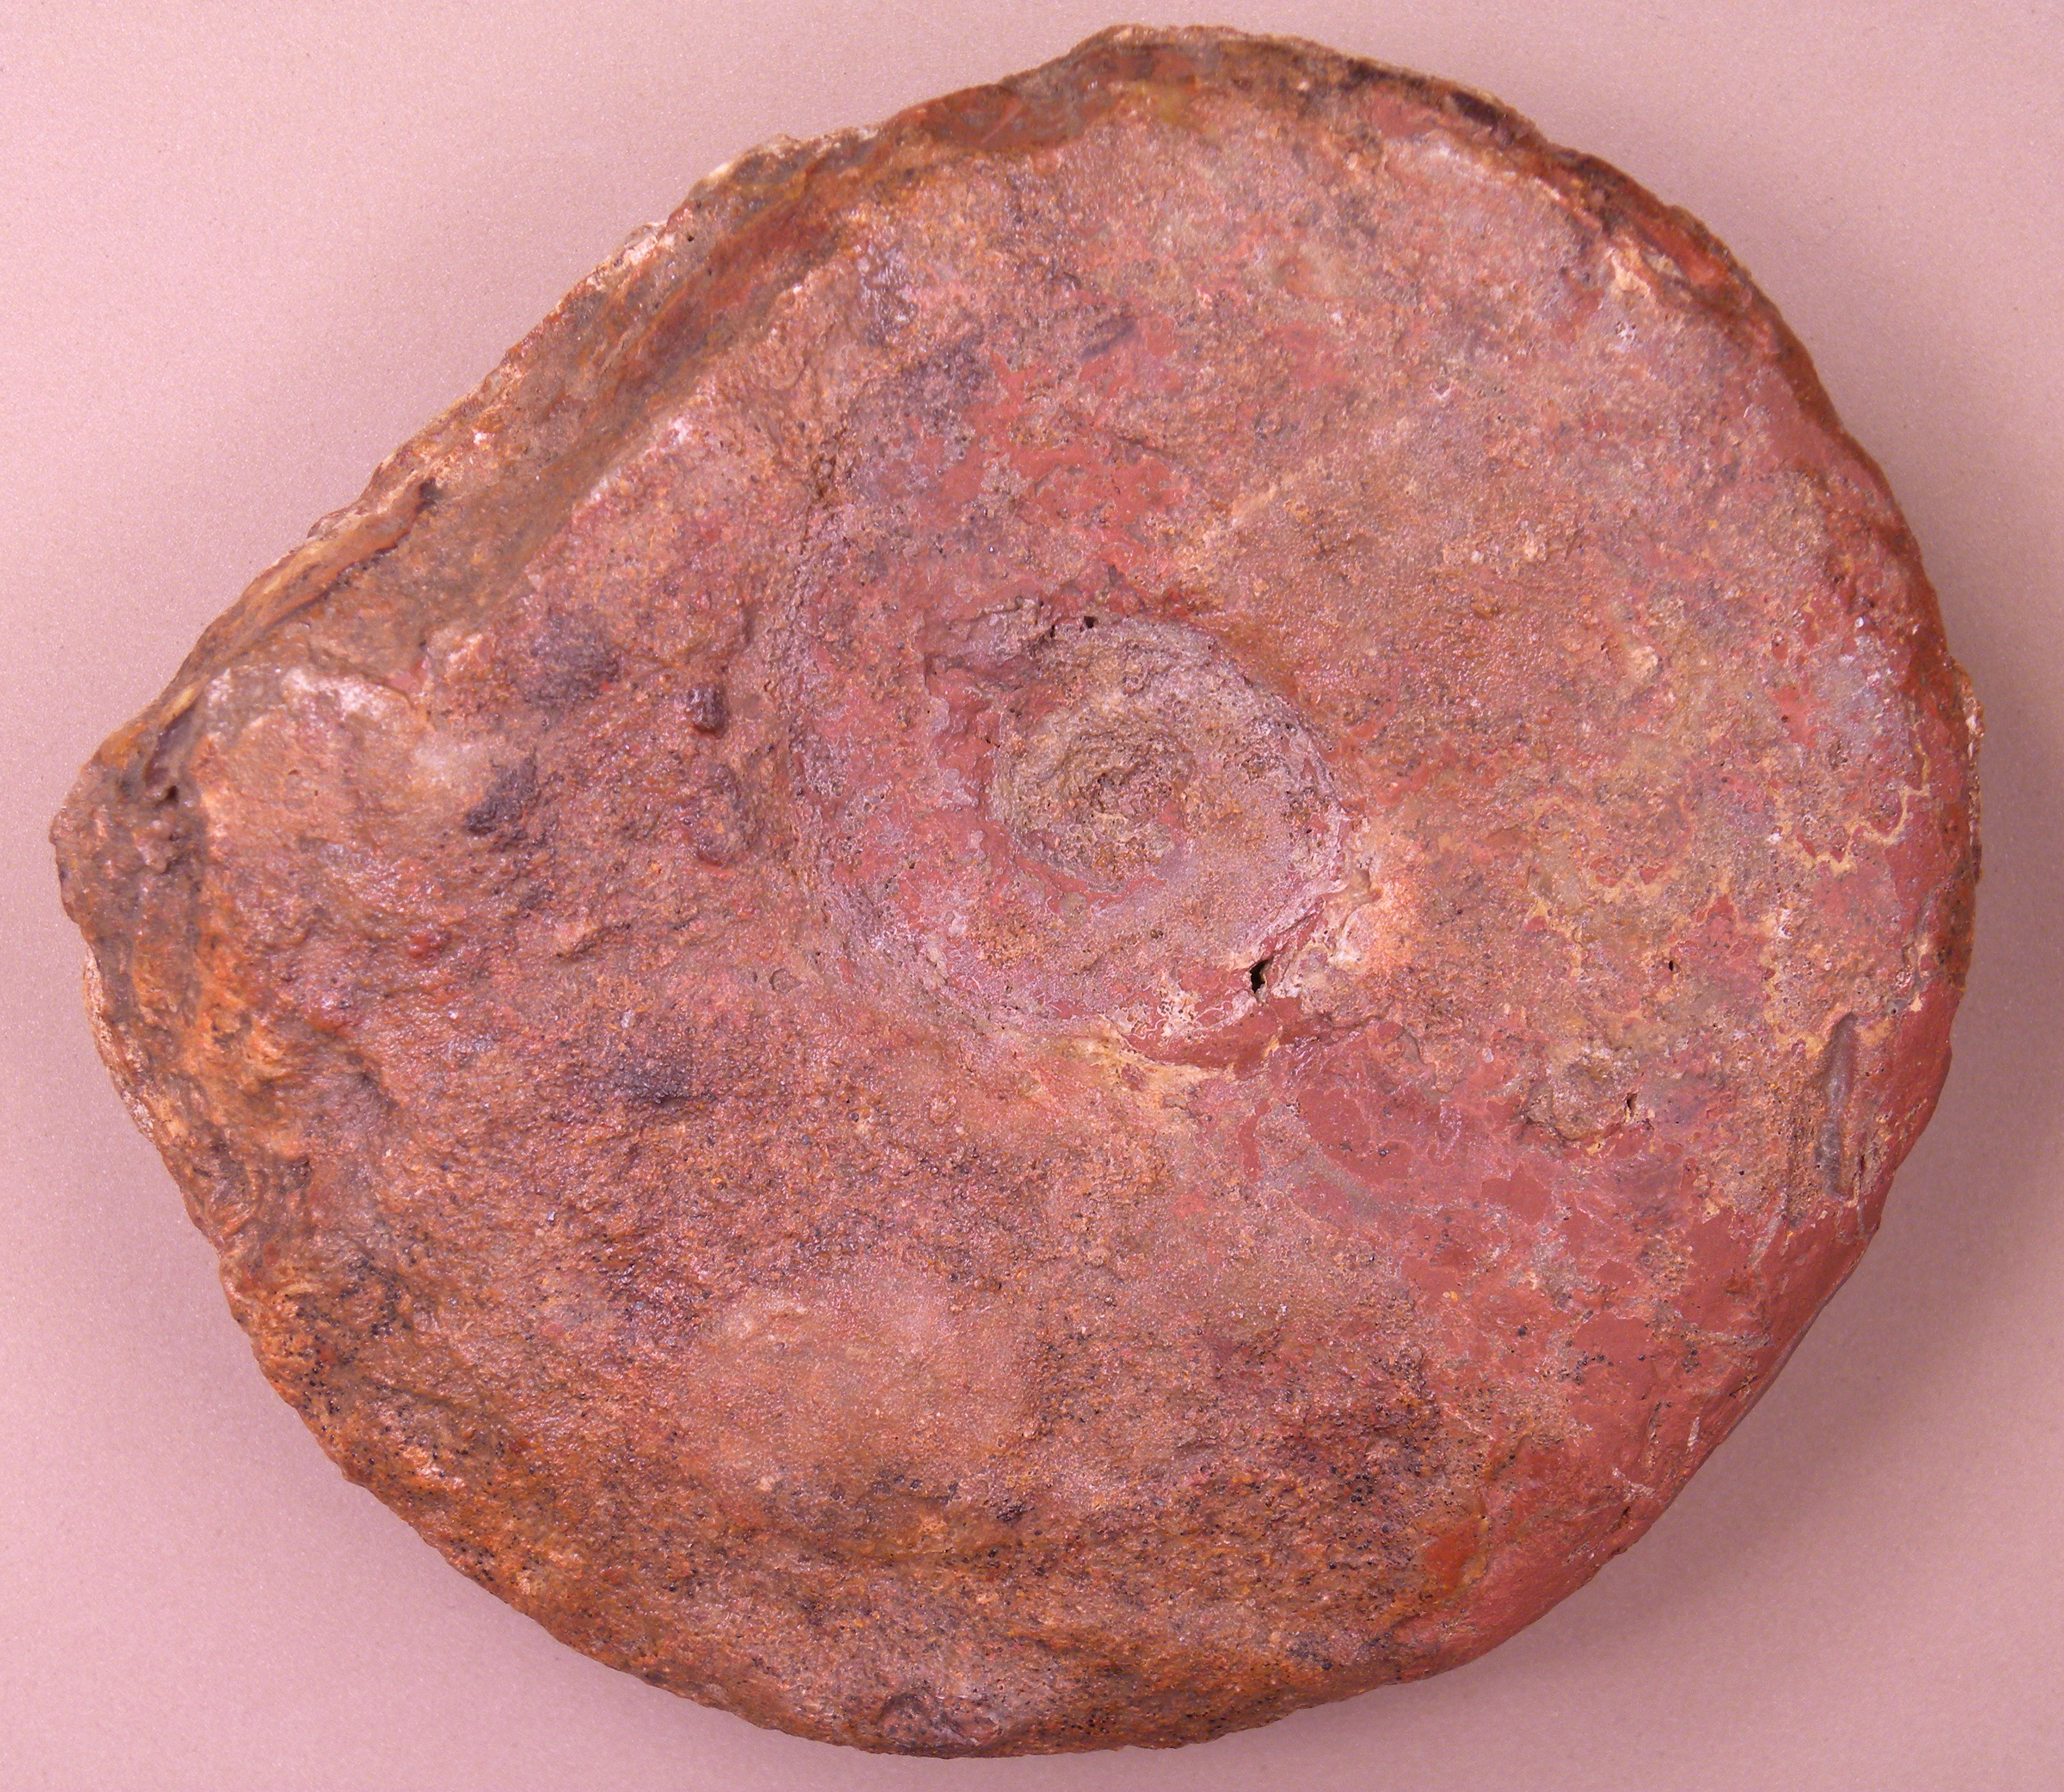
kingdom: Animalia
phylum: Mollusca
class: Cephalopoda
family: Graphoceratidae
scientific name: Graphoceratidae
